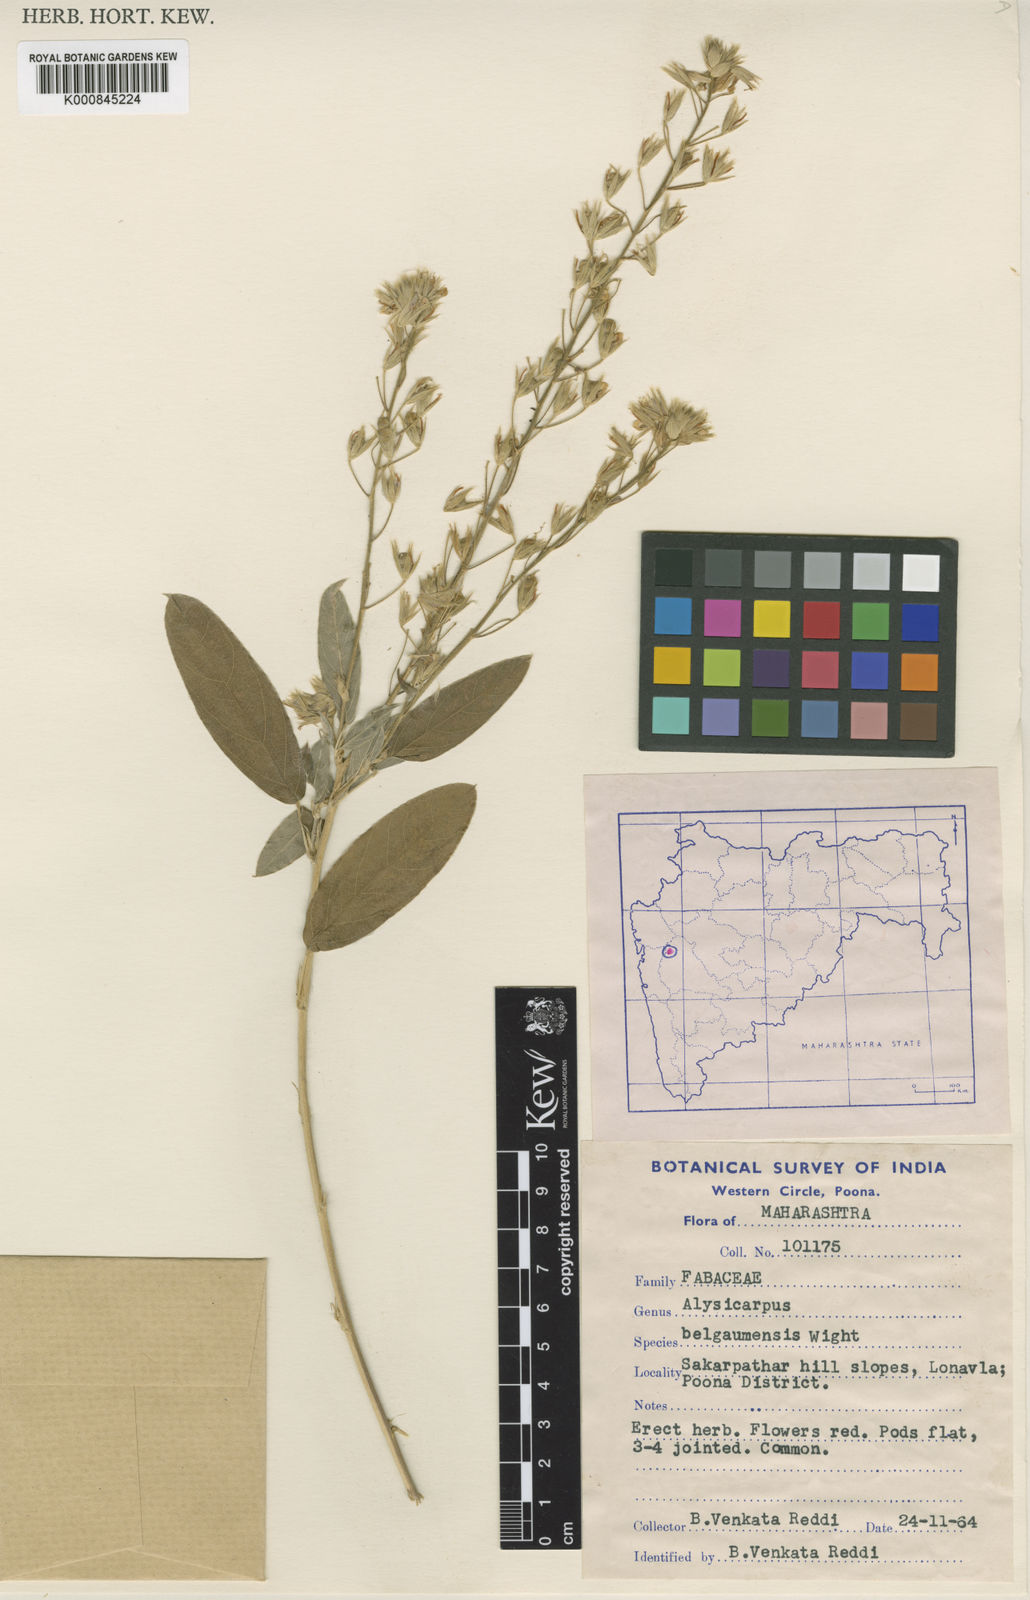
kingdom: Plantae
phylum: Tracheophyta
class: Magnoliopsida
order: Fabales
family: Fabaceae
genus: Alysicarpus
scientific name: Alysicarpus belgaumensis
